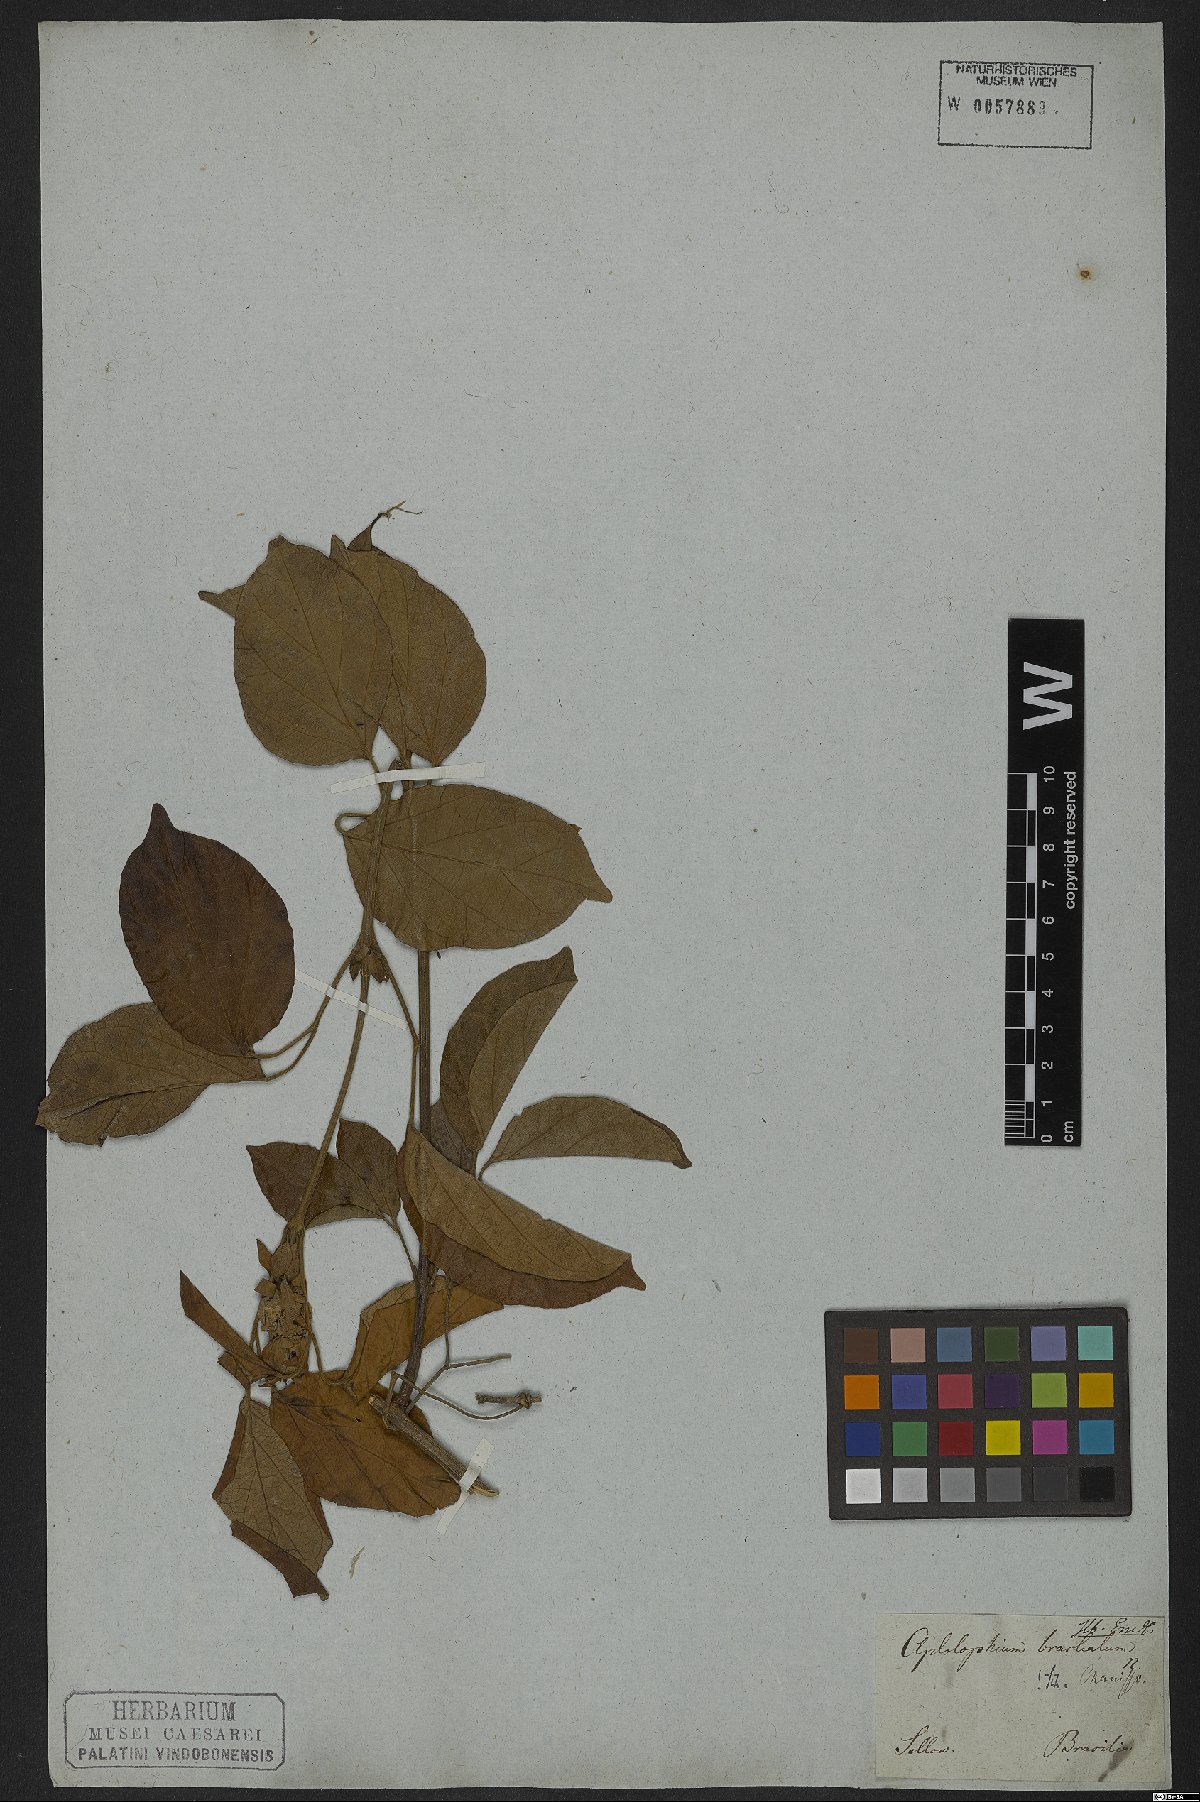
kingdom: Plantae
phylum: Tracheophyta
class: Magnoliopsida
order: Lamiales
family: Bignoniaceae
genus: Amphilophium
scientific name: Amphilophium bracteatum
